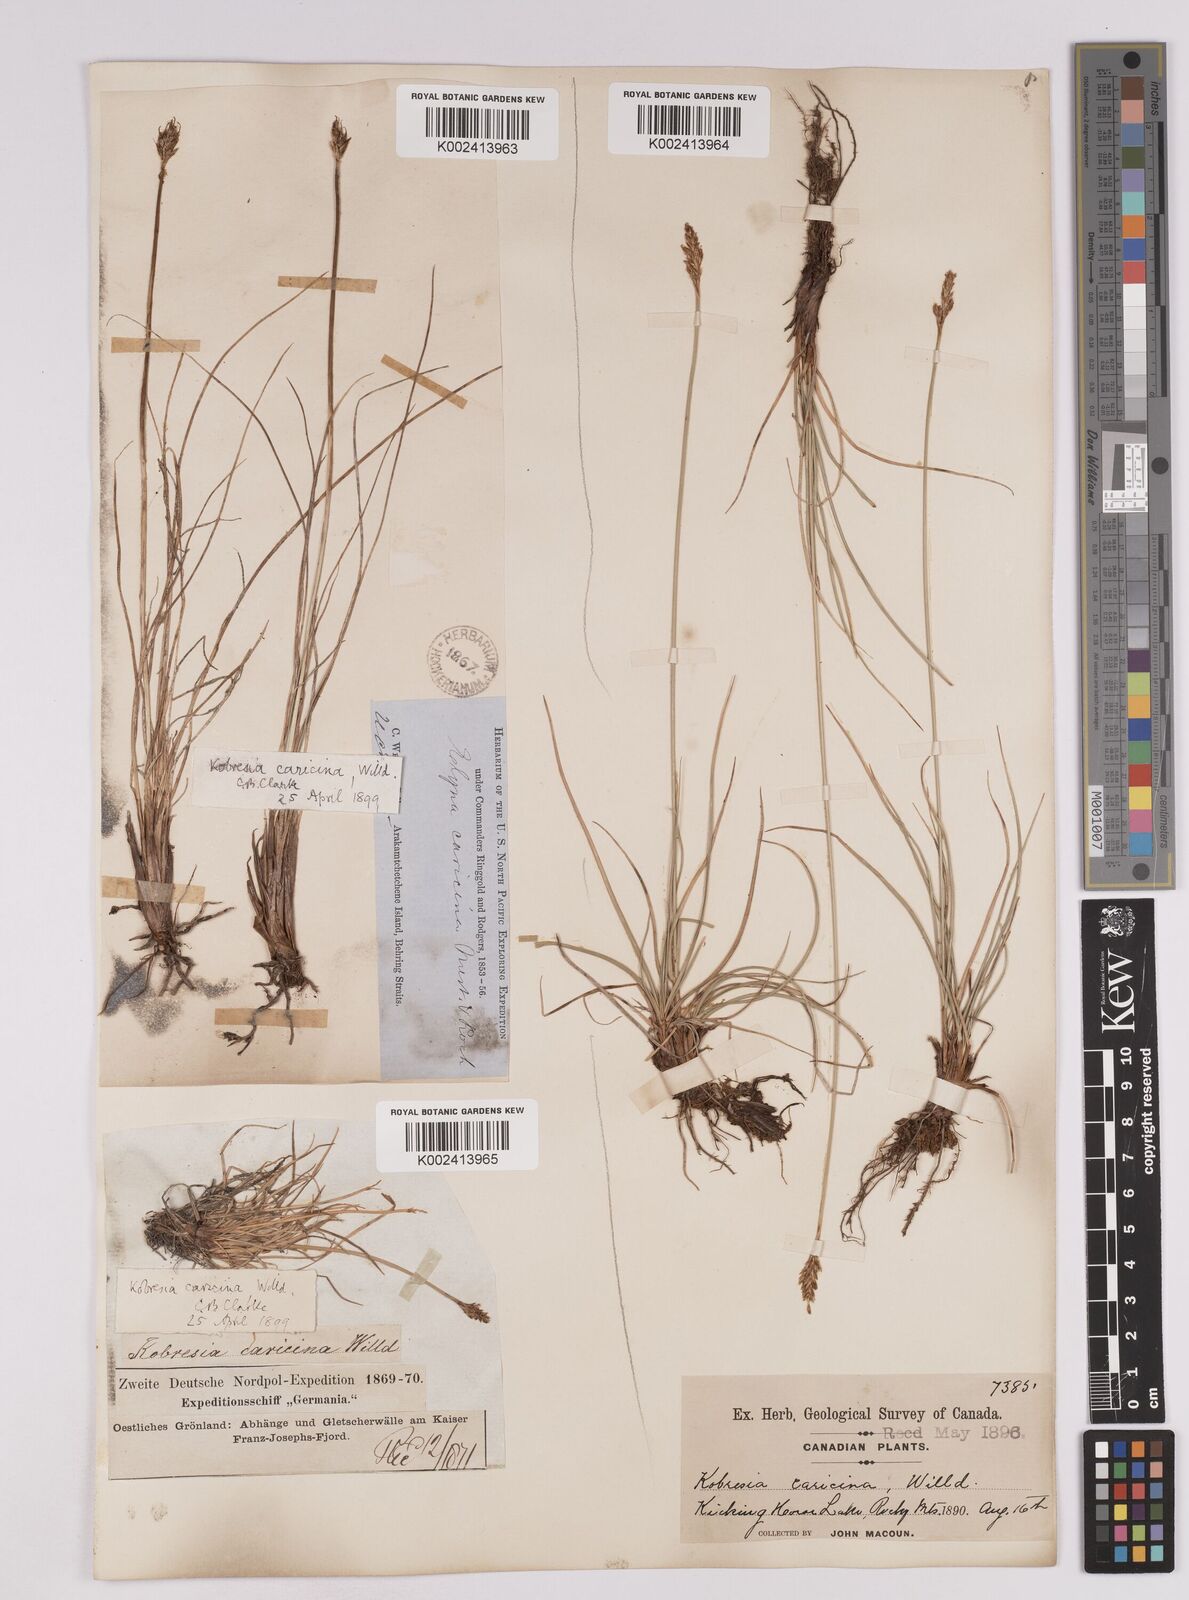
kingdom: Plantae
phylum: Tracheophyta
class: Liliopsida
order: Poales
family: Cyperaceae
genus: Carex
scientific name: Carex simpliciuscula
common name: Simple bog sedge
